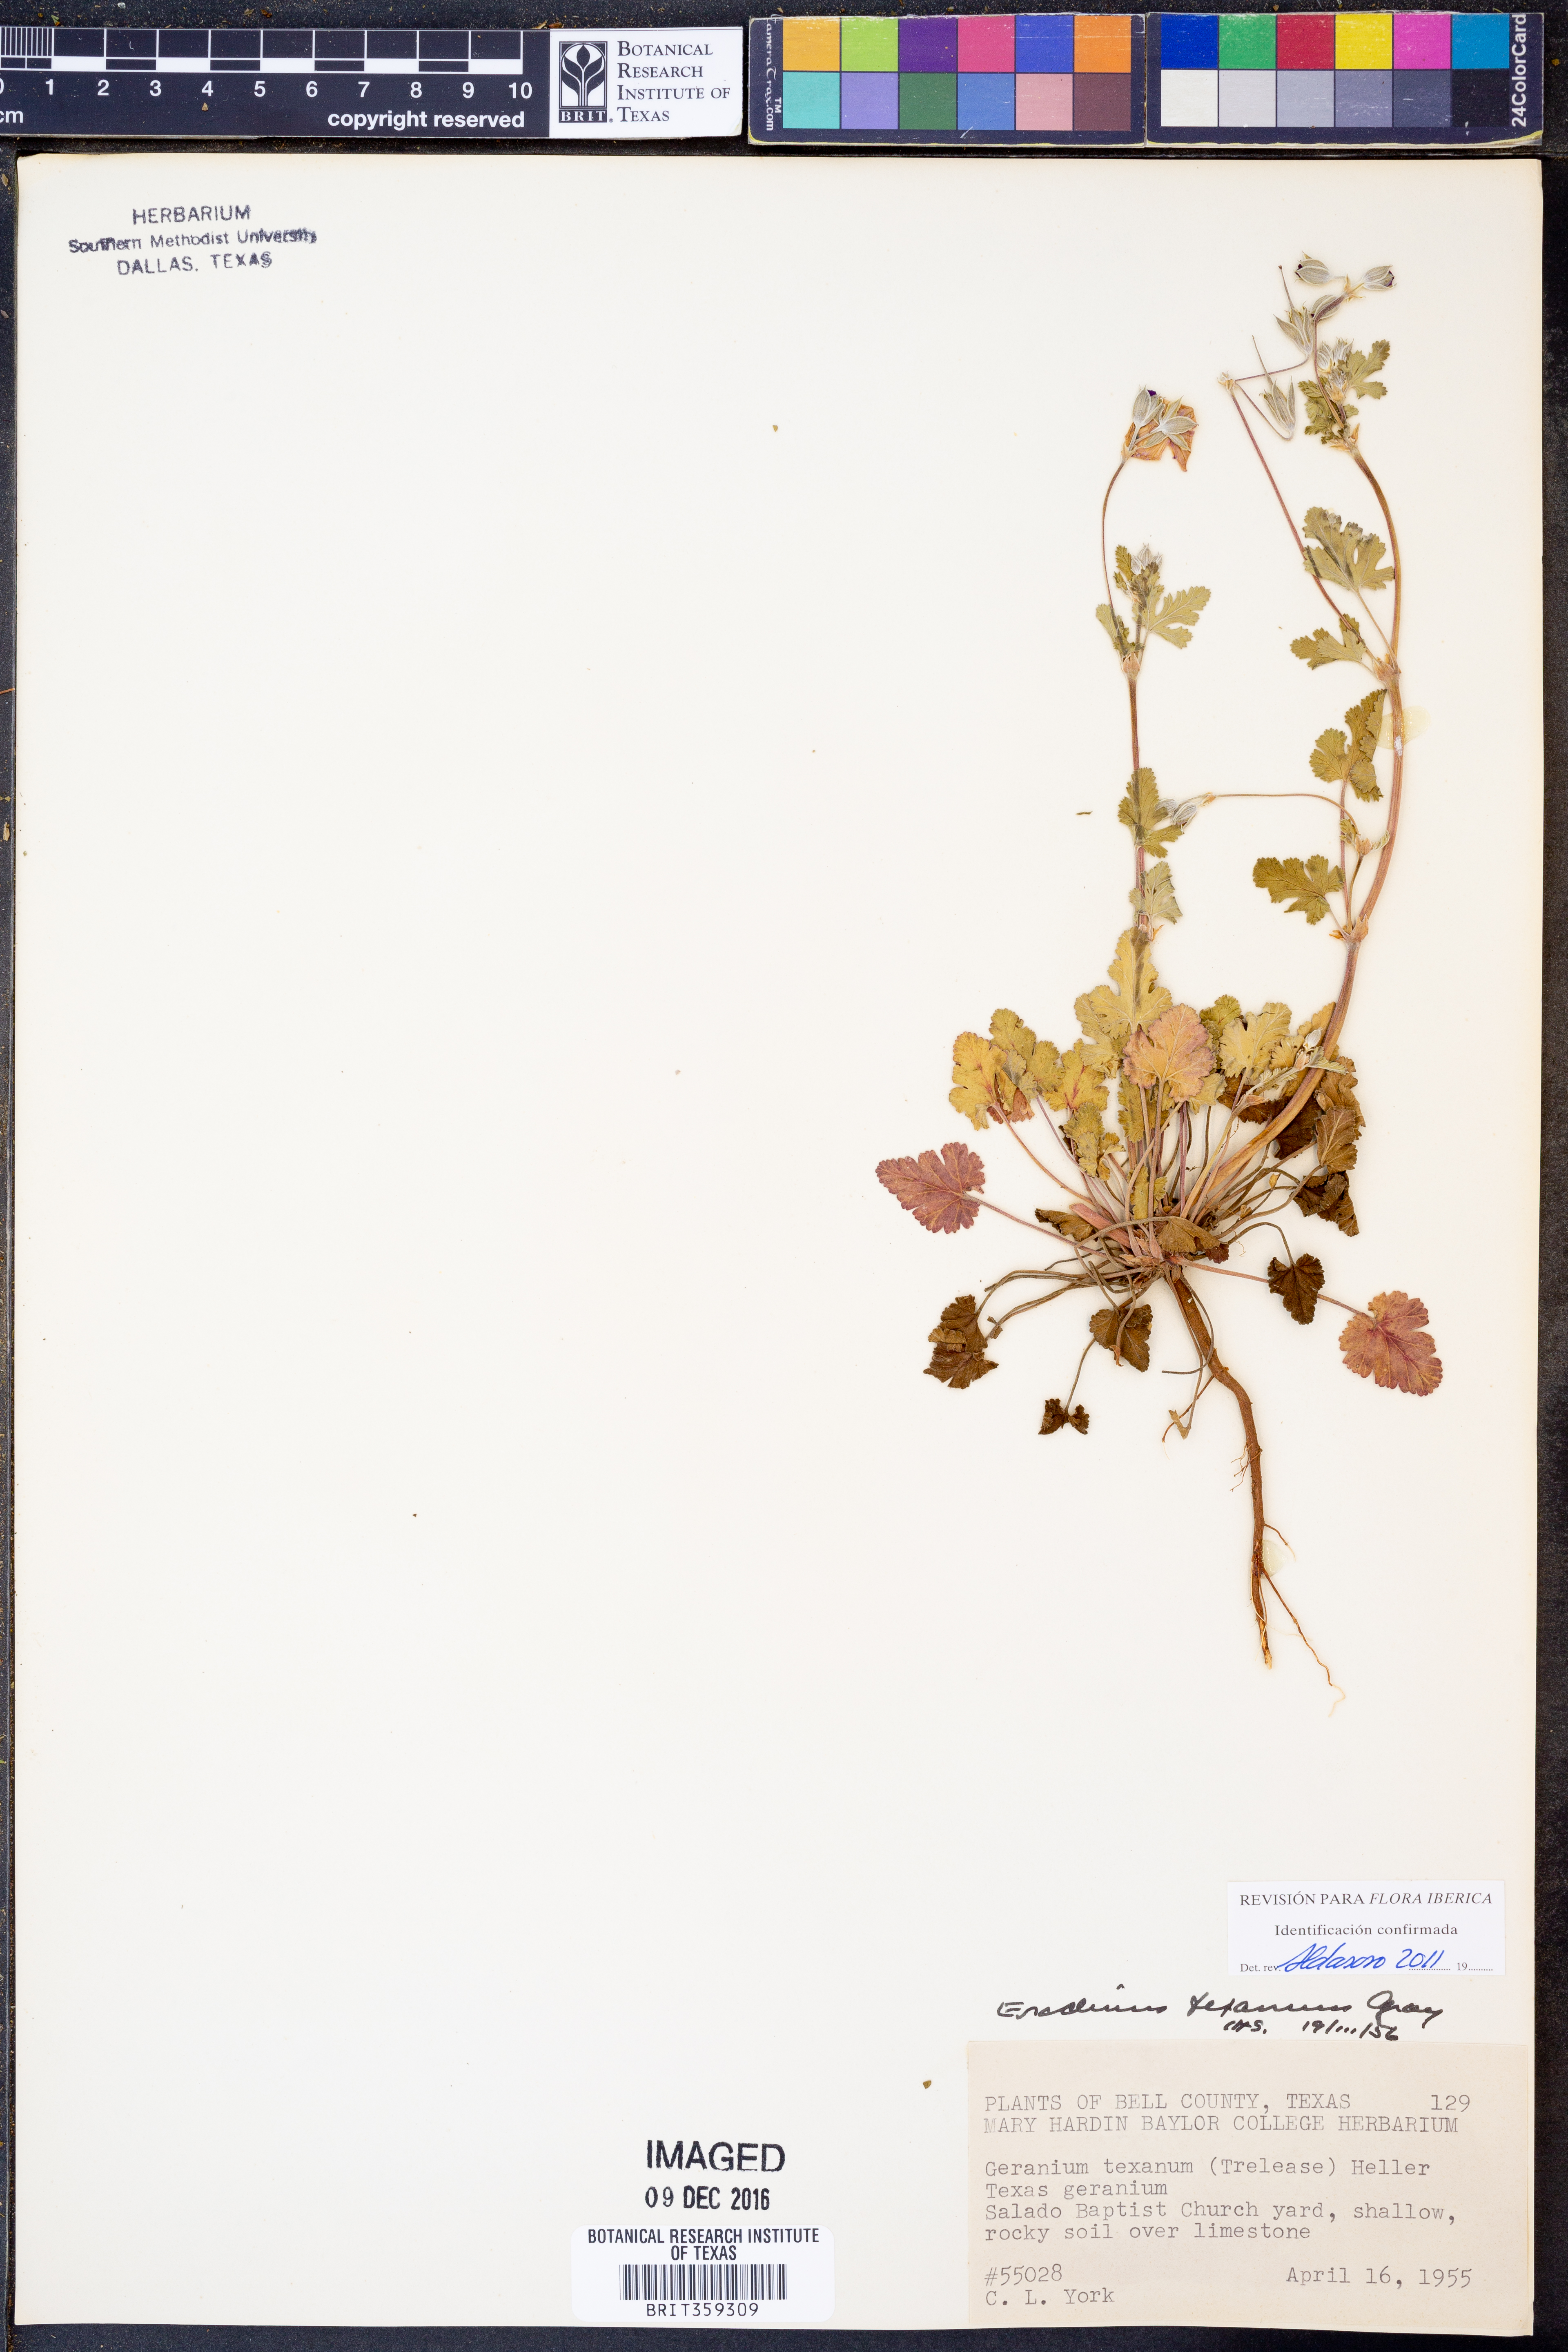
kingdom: Plantae
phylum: Tracheophyta
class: Magnoliopsida
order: Geraniales
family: Geraniaceae
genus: Erodium
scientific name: Erodium texanum
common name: Texas stork's-bill
